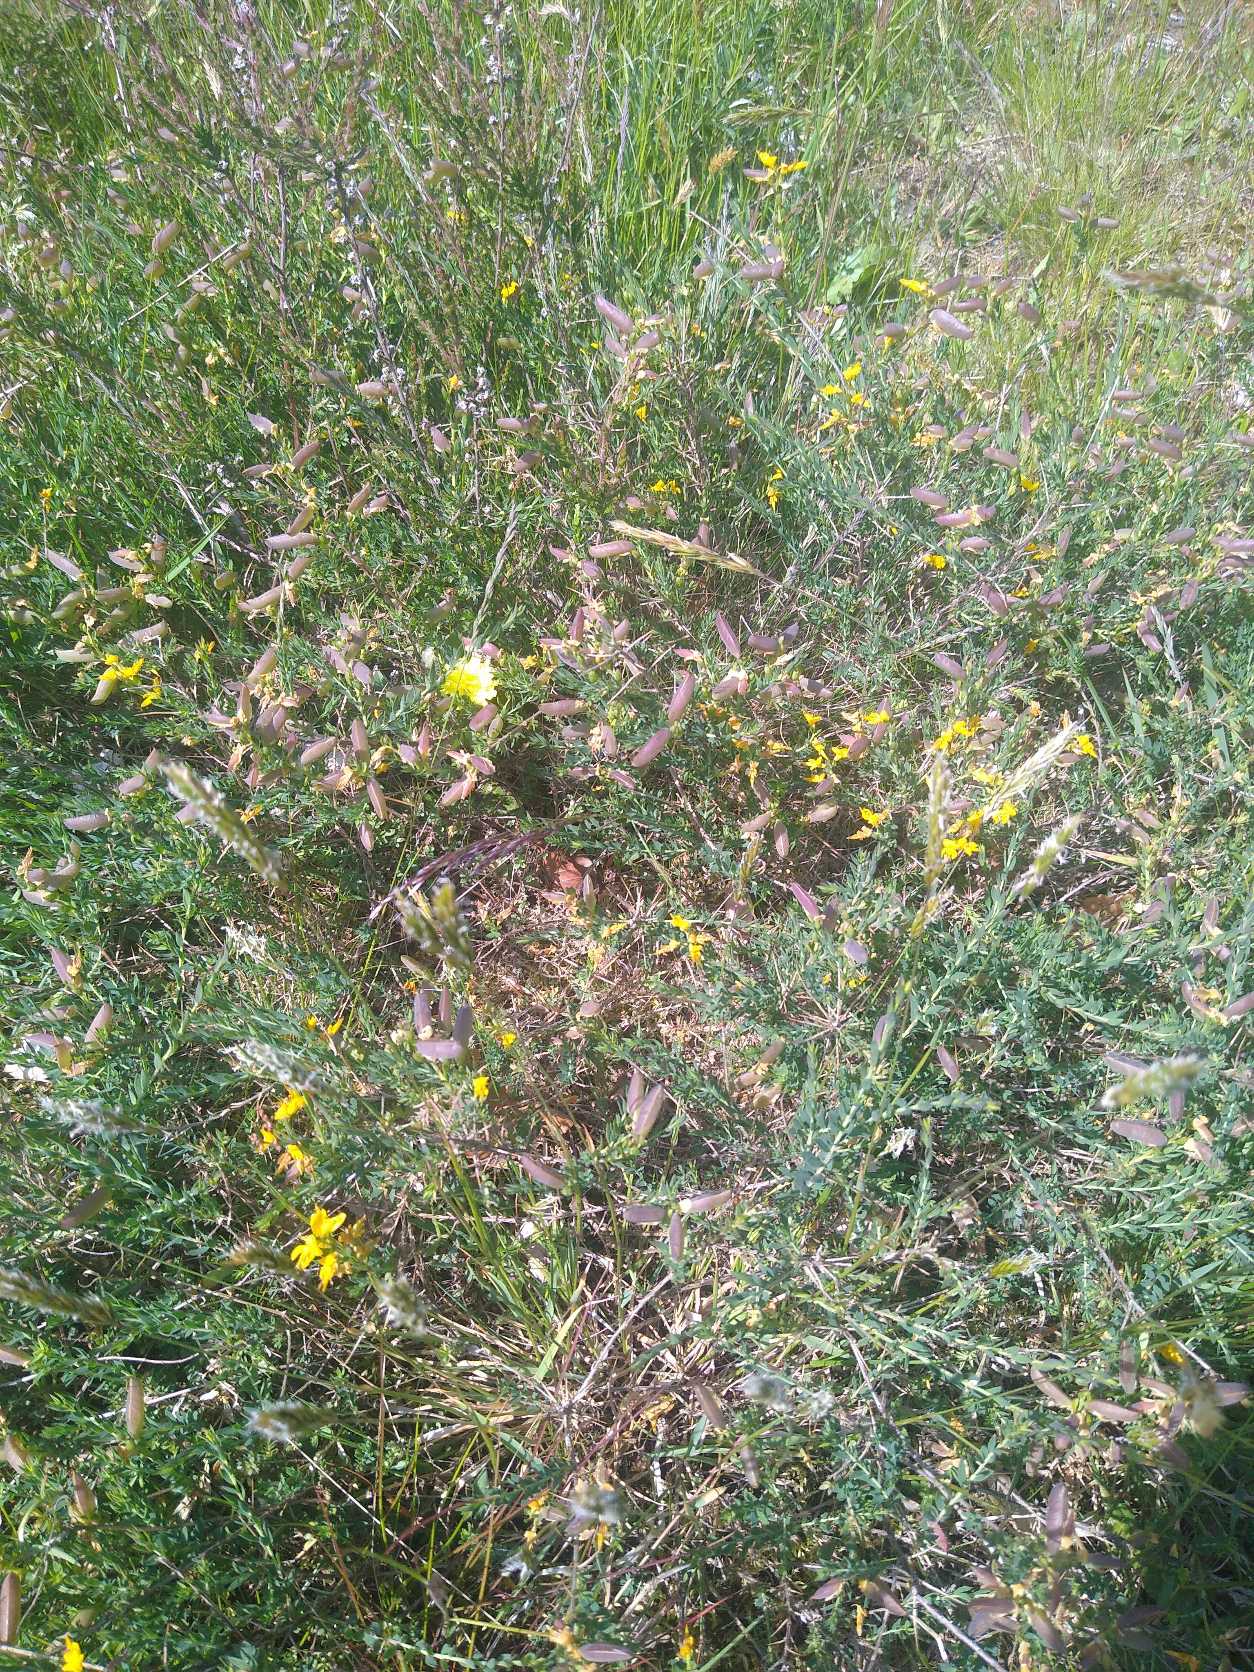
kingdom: Plantae
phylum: Tracheophyta
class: Magnoliopsida
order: Fabales
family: Fabaceae
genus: Genista
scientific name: Genista anglica
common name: Engelsk visse
